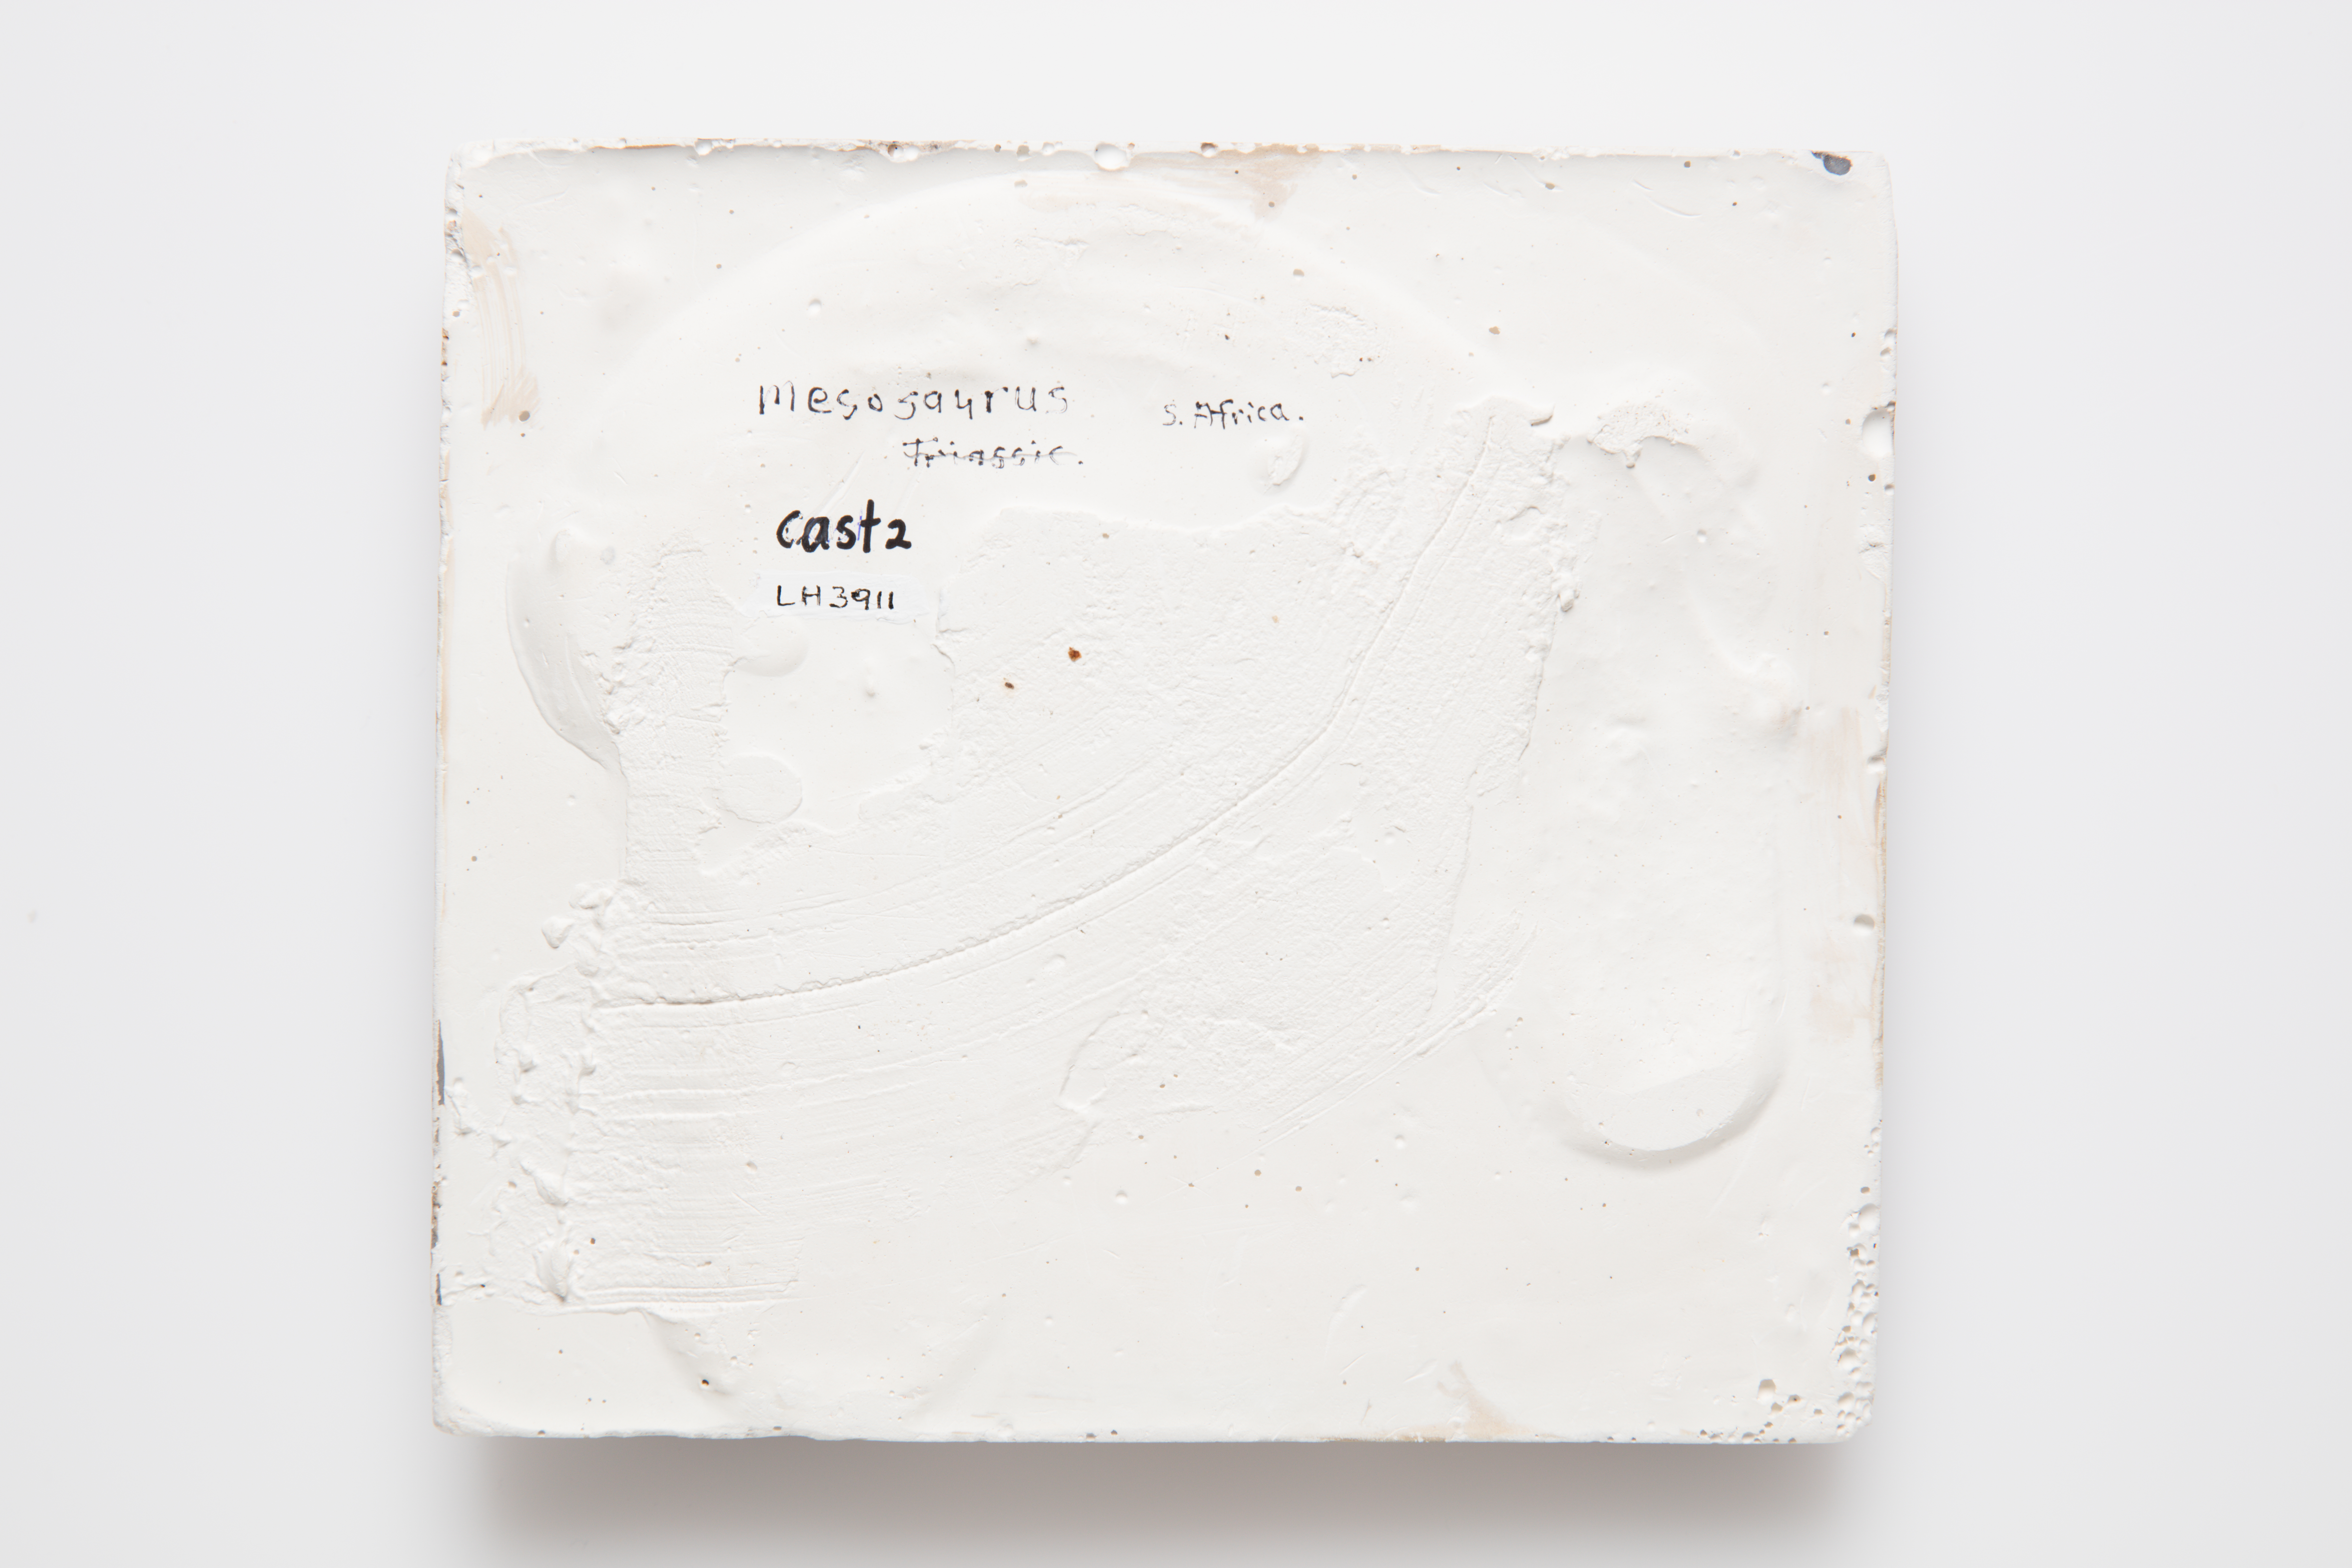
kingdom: Animalia
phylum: Chordata
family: Mesosauridae
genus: Mesosaurus
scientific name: Mesosaurus
